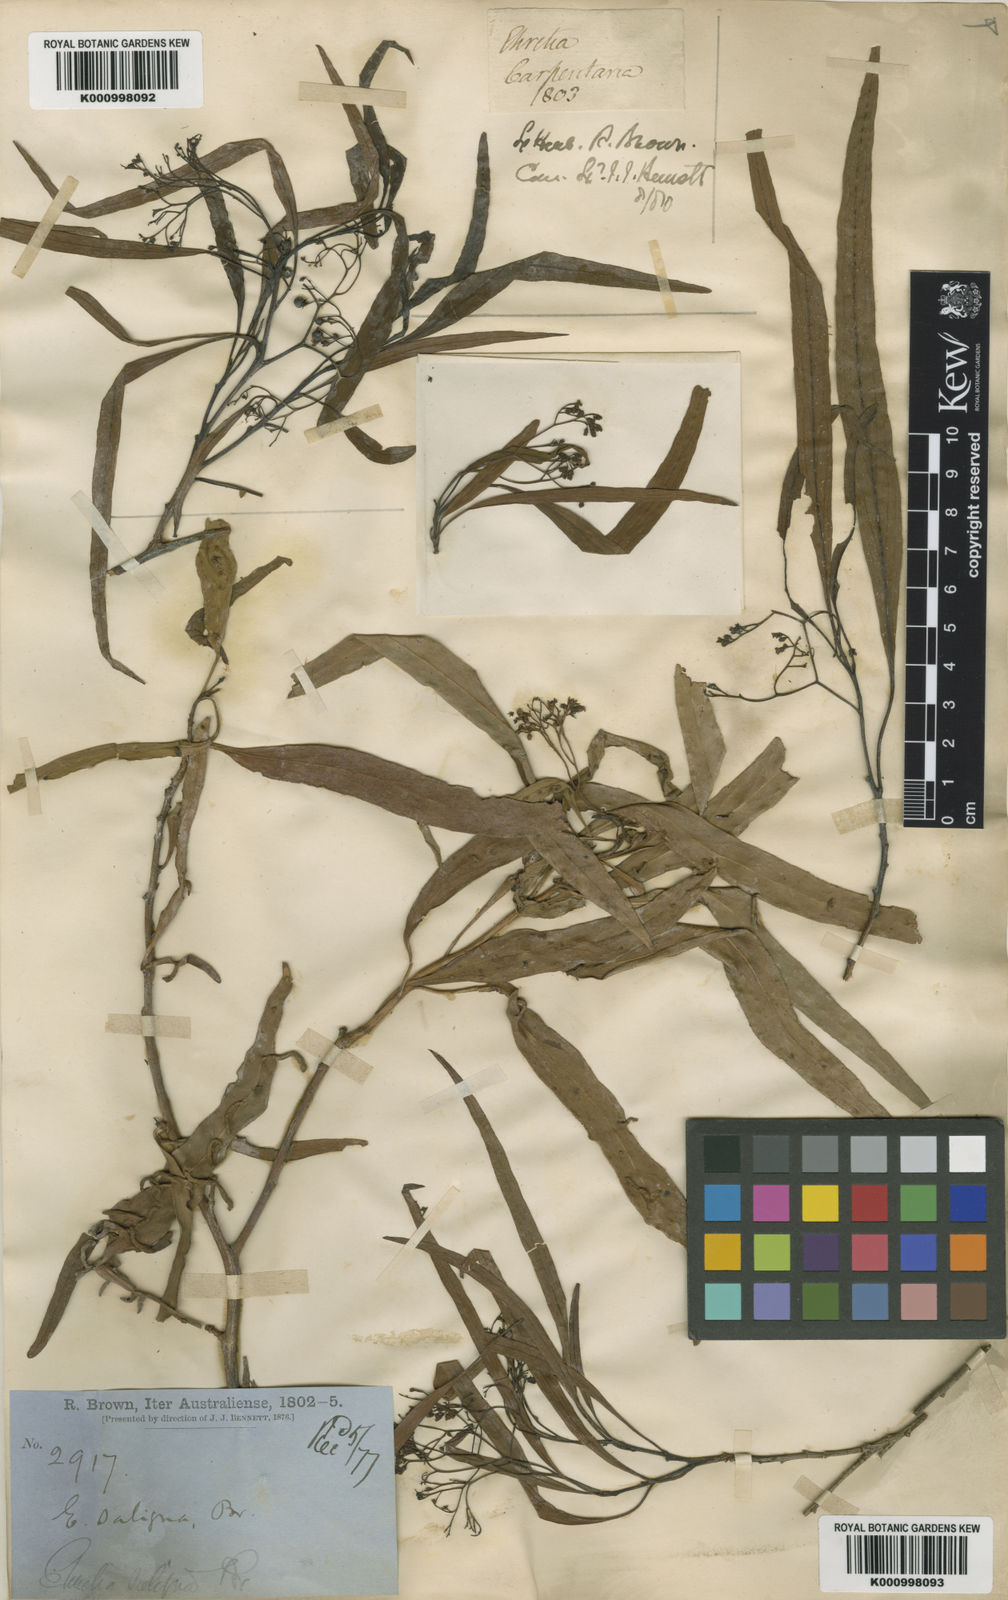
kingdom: Plantae
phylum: Tracheophyta
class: Magnoliopsida
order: Boraginales
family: Ehretiaceae
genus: Ehretia
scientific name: Ehretia saligna
